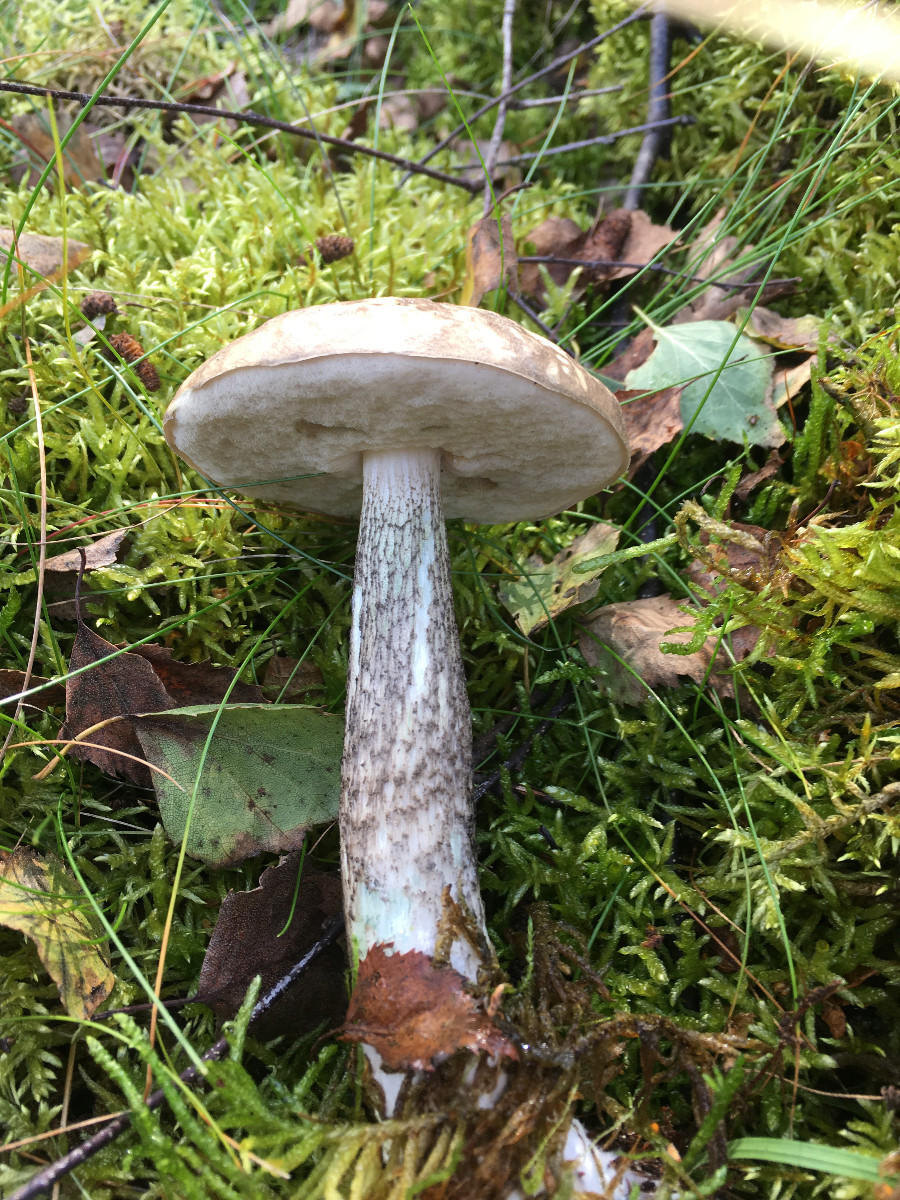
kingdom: Fungi
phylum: Basidiomycota
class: Agaricomycetes
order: Boletales
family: Boletaceae
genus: Leccinum
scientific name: Leccinum variicolor
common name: flammet skælrørhat
